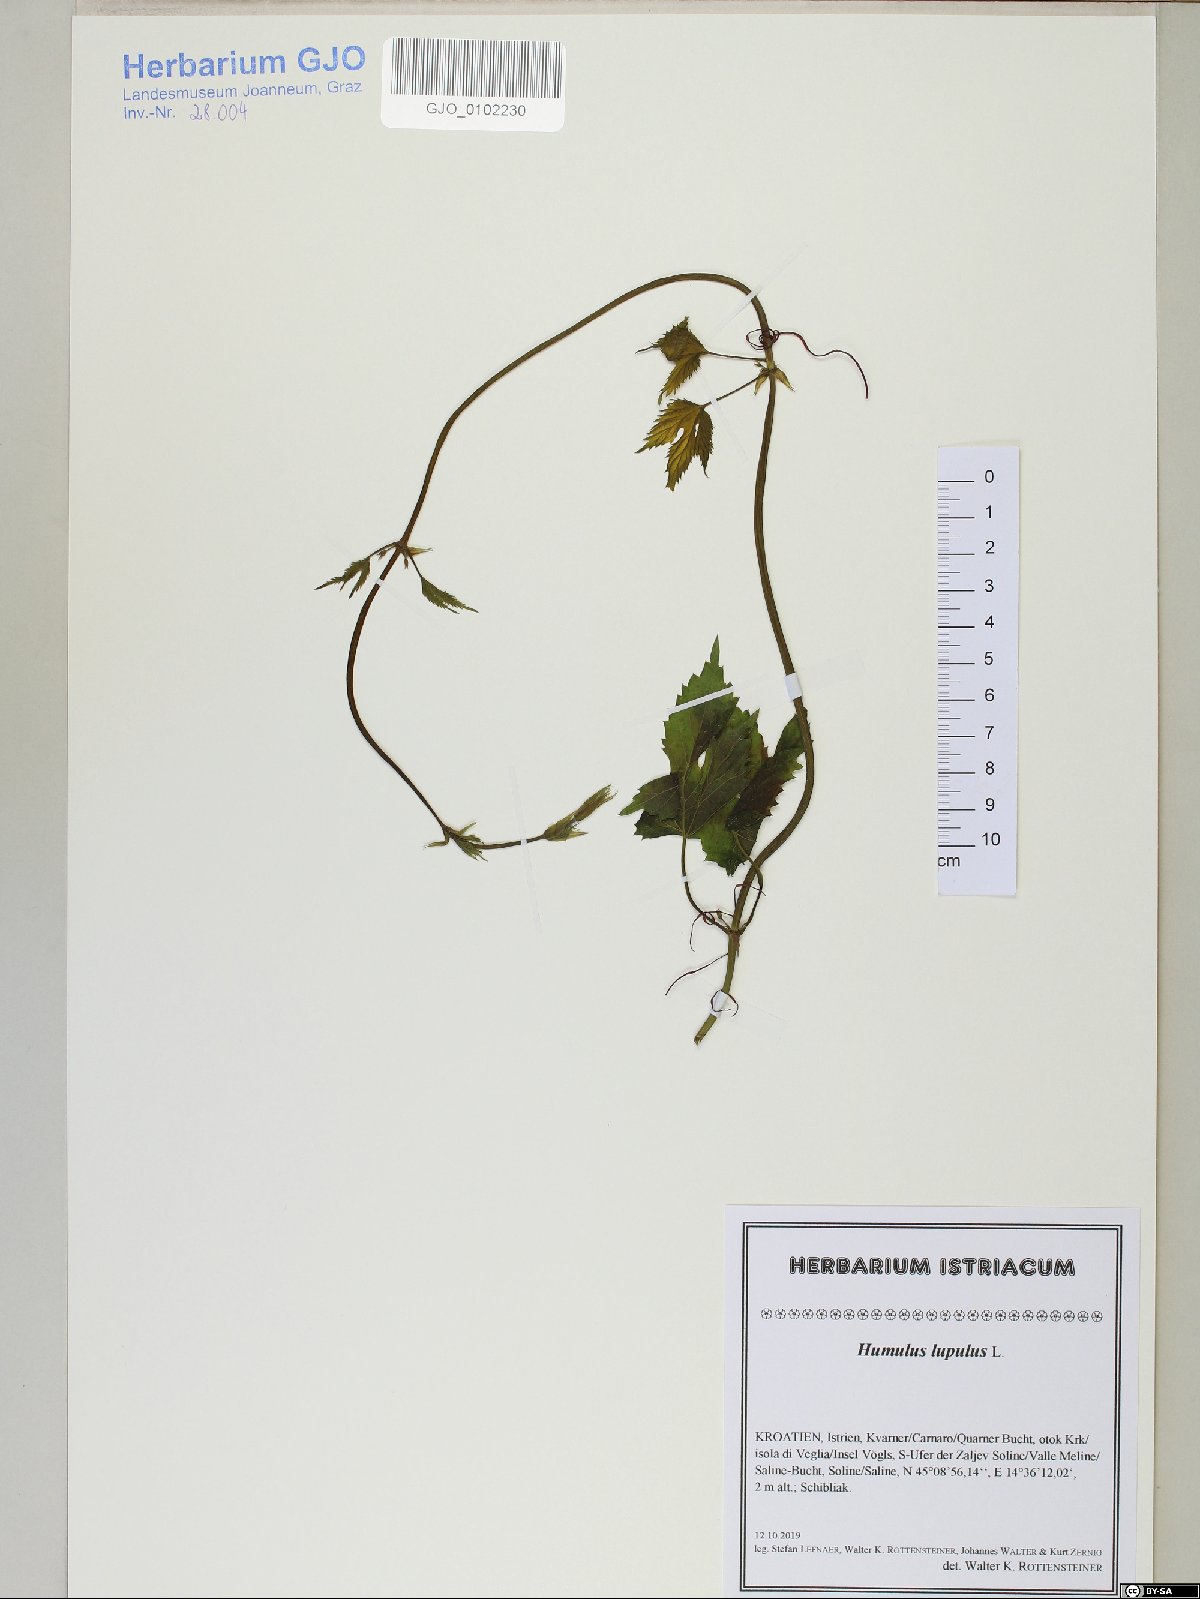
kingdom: Plantae
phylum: Tracheophyta
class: Magnoliopsida
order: Rosales
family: Cannabaceae
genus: Humulus
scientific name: Humulus lupulus
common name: Hop
